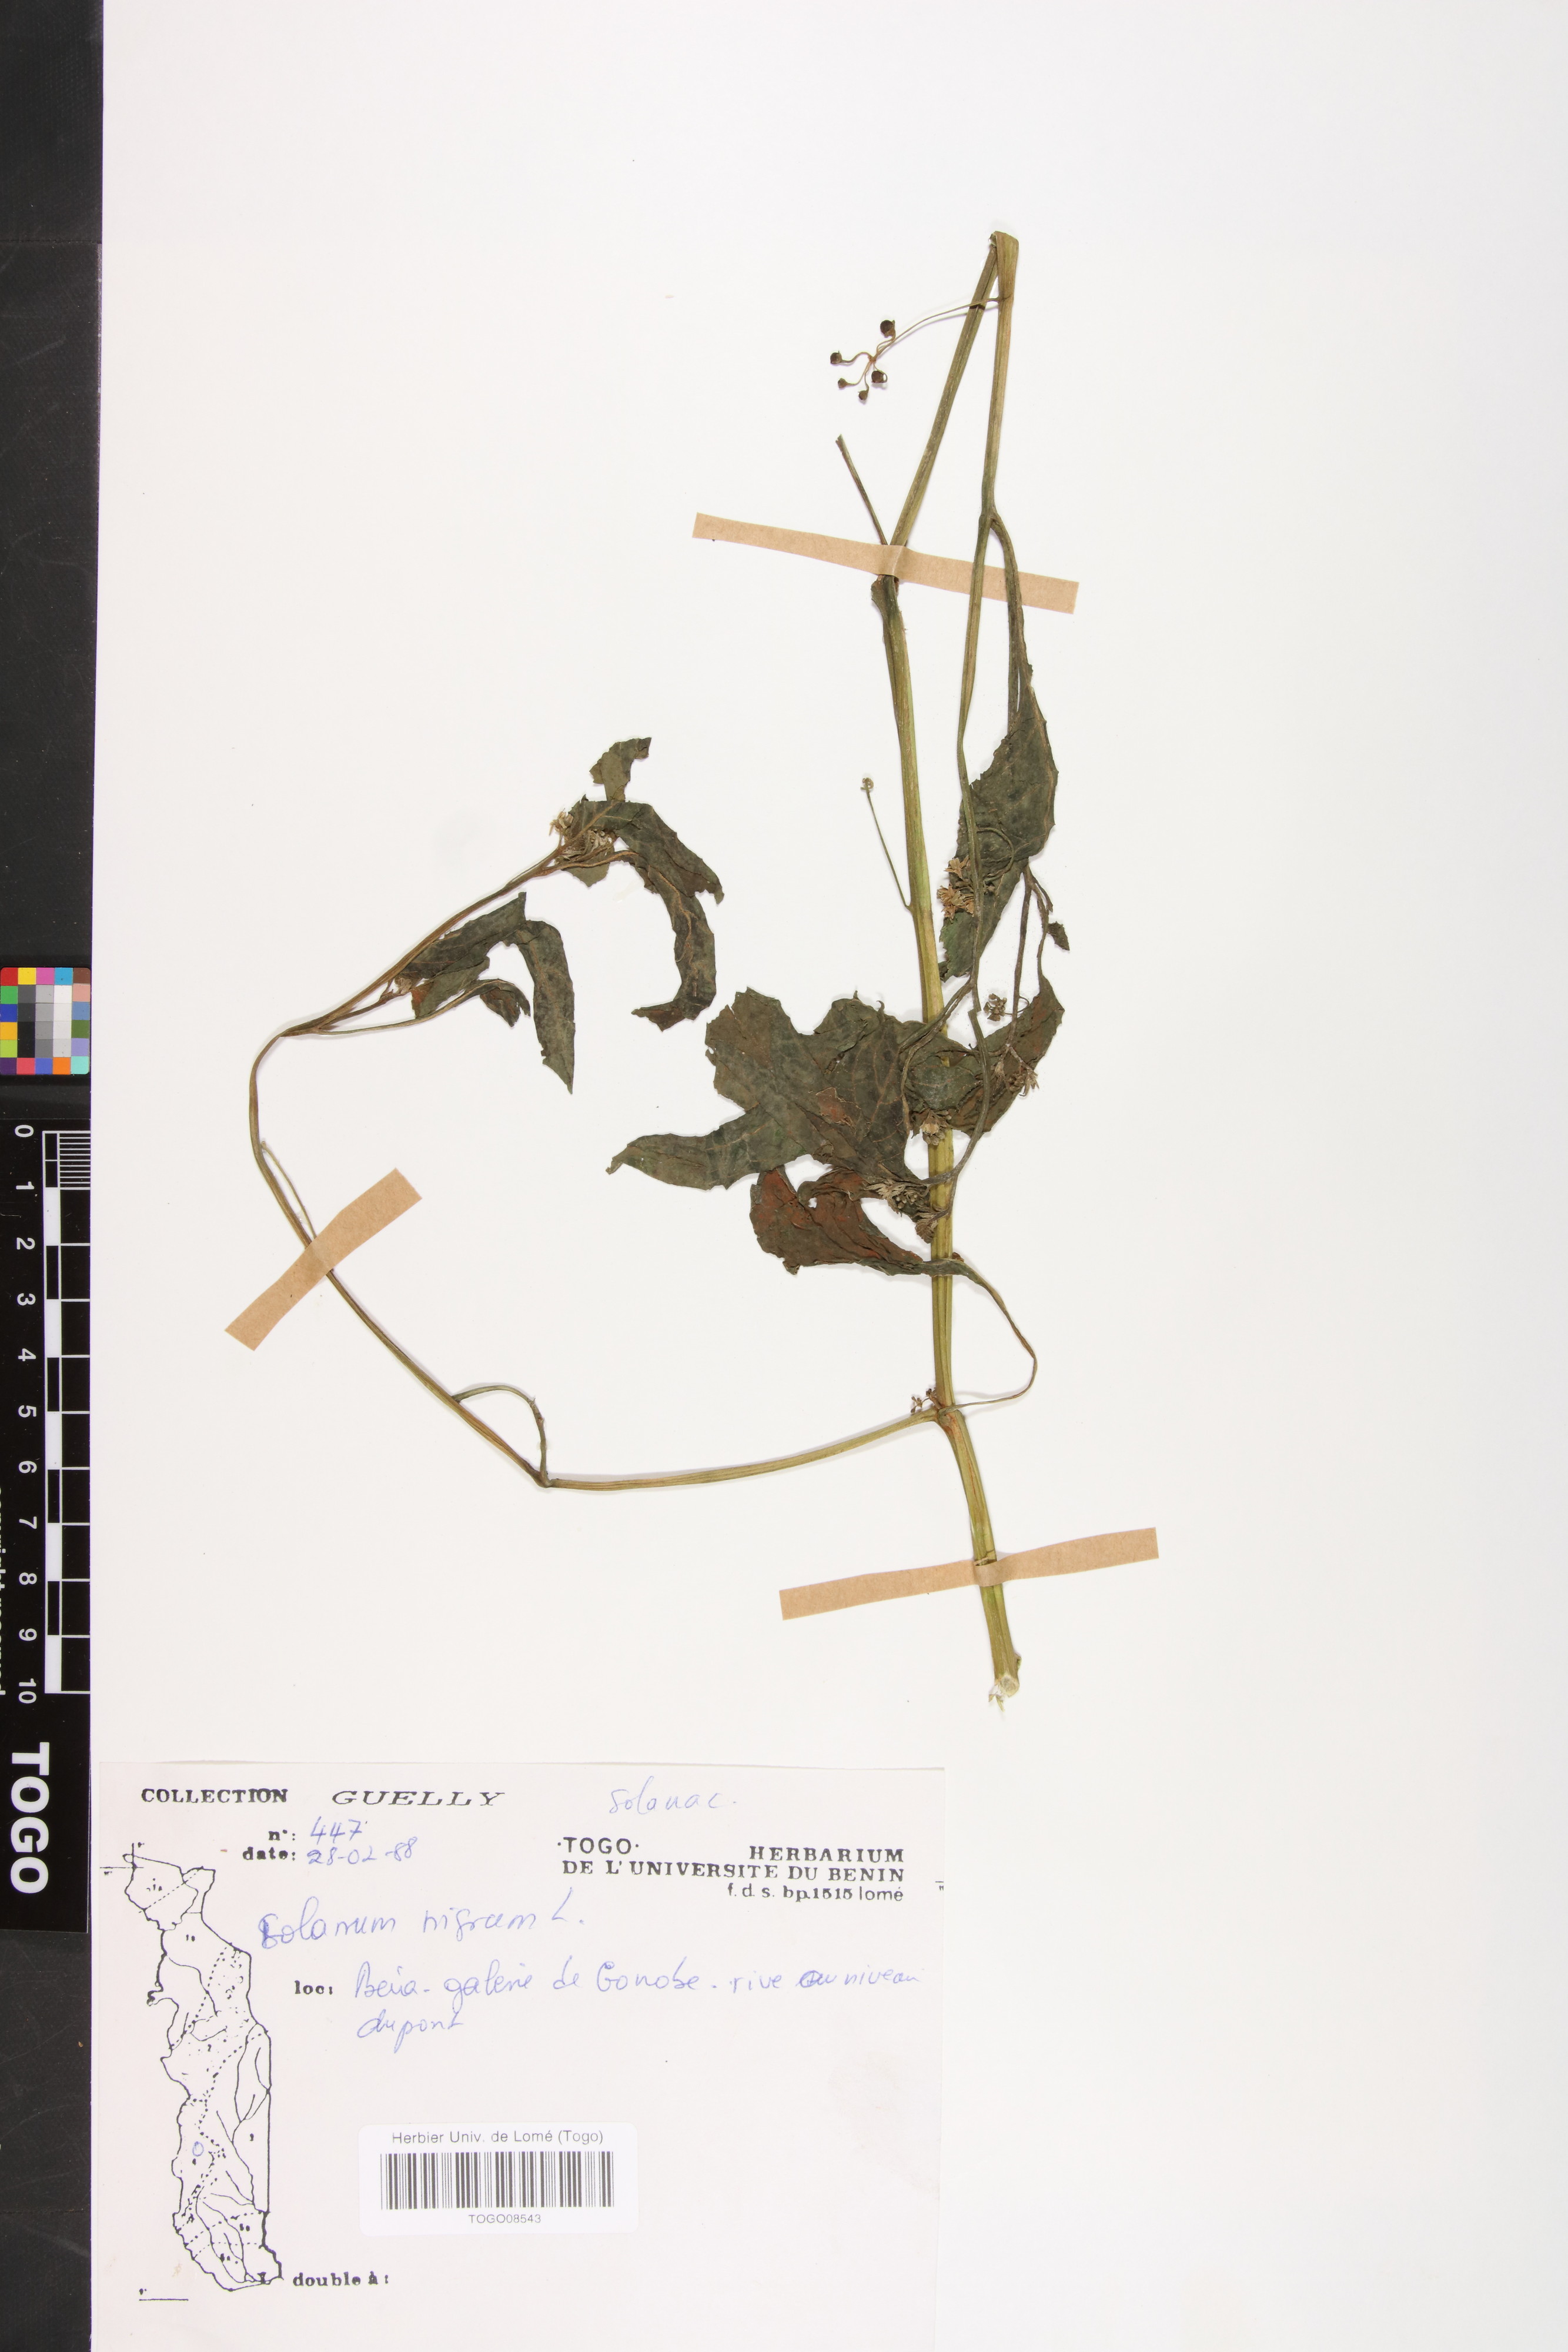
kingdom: Plantae
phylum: Tracheophyta
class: Magnoliopsida
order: Solanales
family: Solanaceae
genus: Solanum
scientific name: Solanum nigrum
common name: Black nightshade
